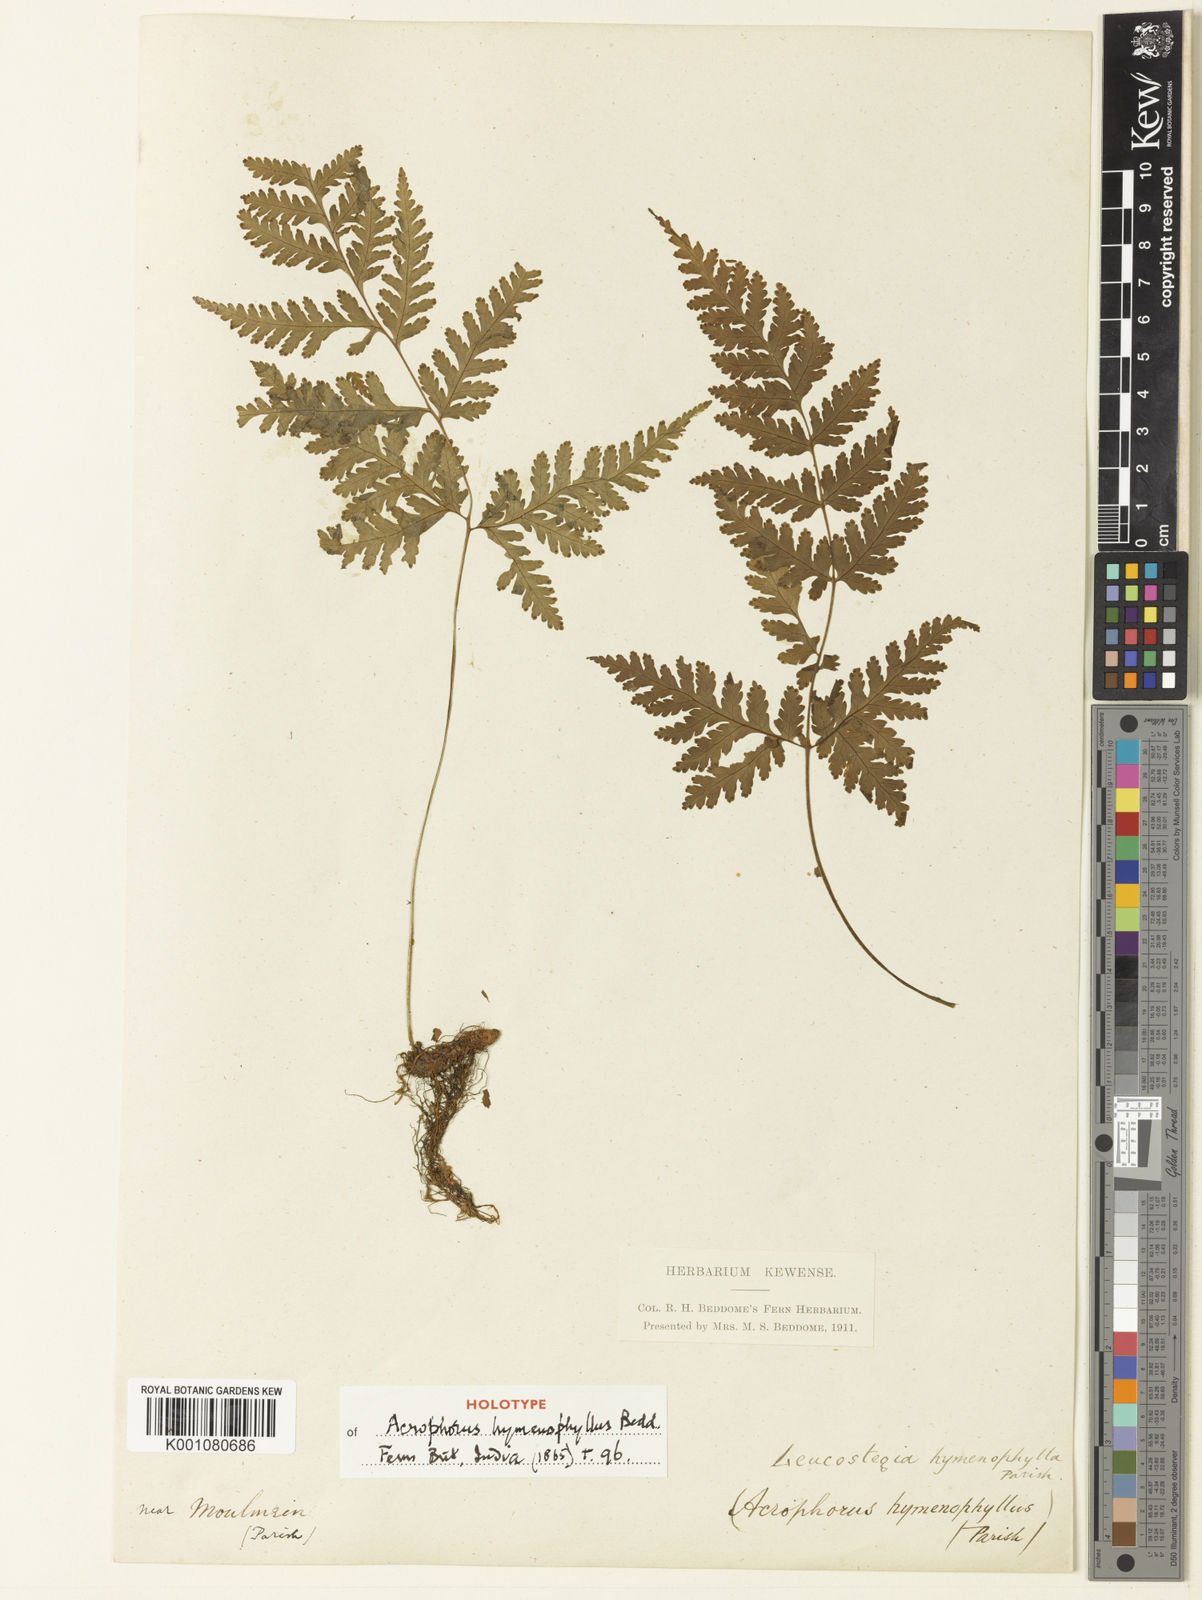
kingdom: Plantae
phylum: Tracheophyta
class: Polypodiopsida
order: Polypodiales
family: Tectariaceae
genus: Tectaria
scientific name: Tectaria hymenophylla
